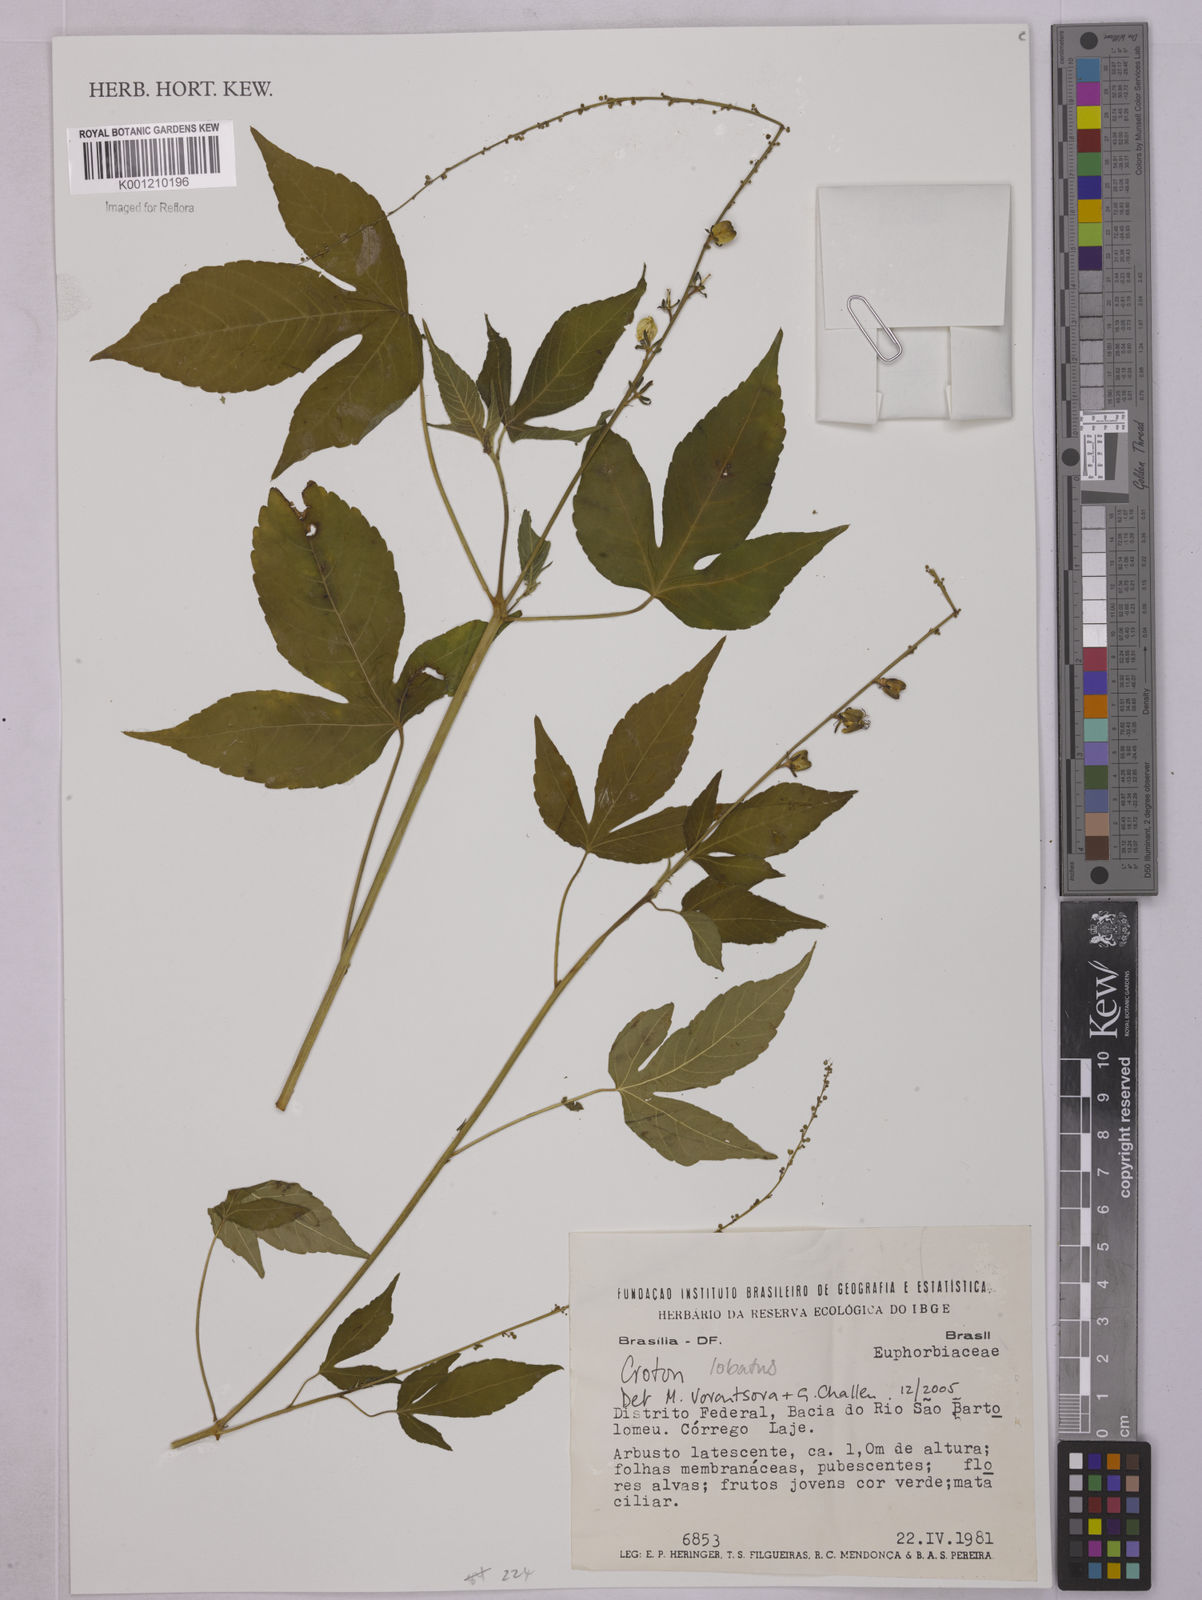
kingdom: Plantae
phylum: Tracheophyta
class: Magnoliopsida
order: Malpighiales
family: Euphorbiaceae
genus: Astraea
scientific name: Astraea lobata
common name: Lobed croton
